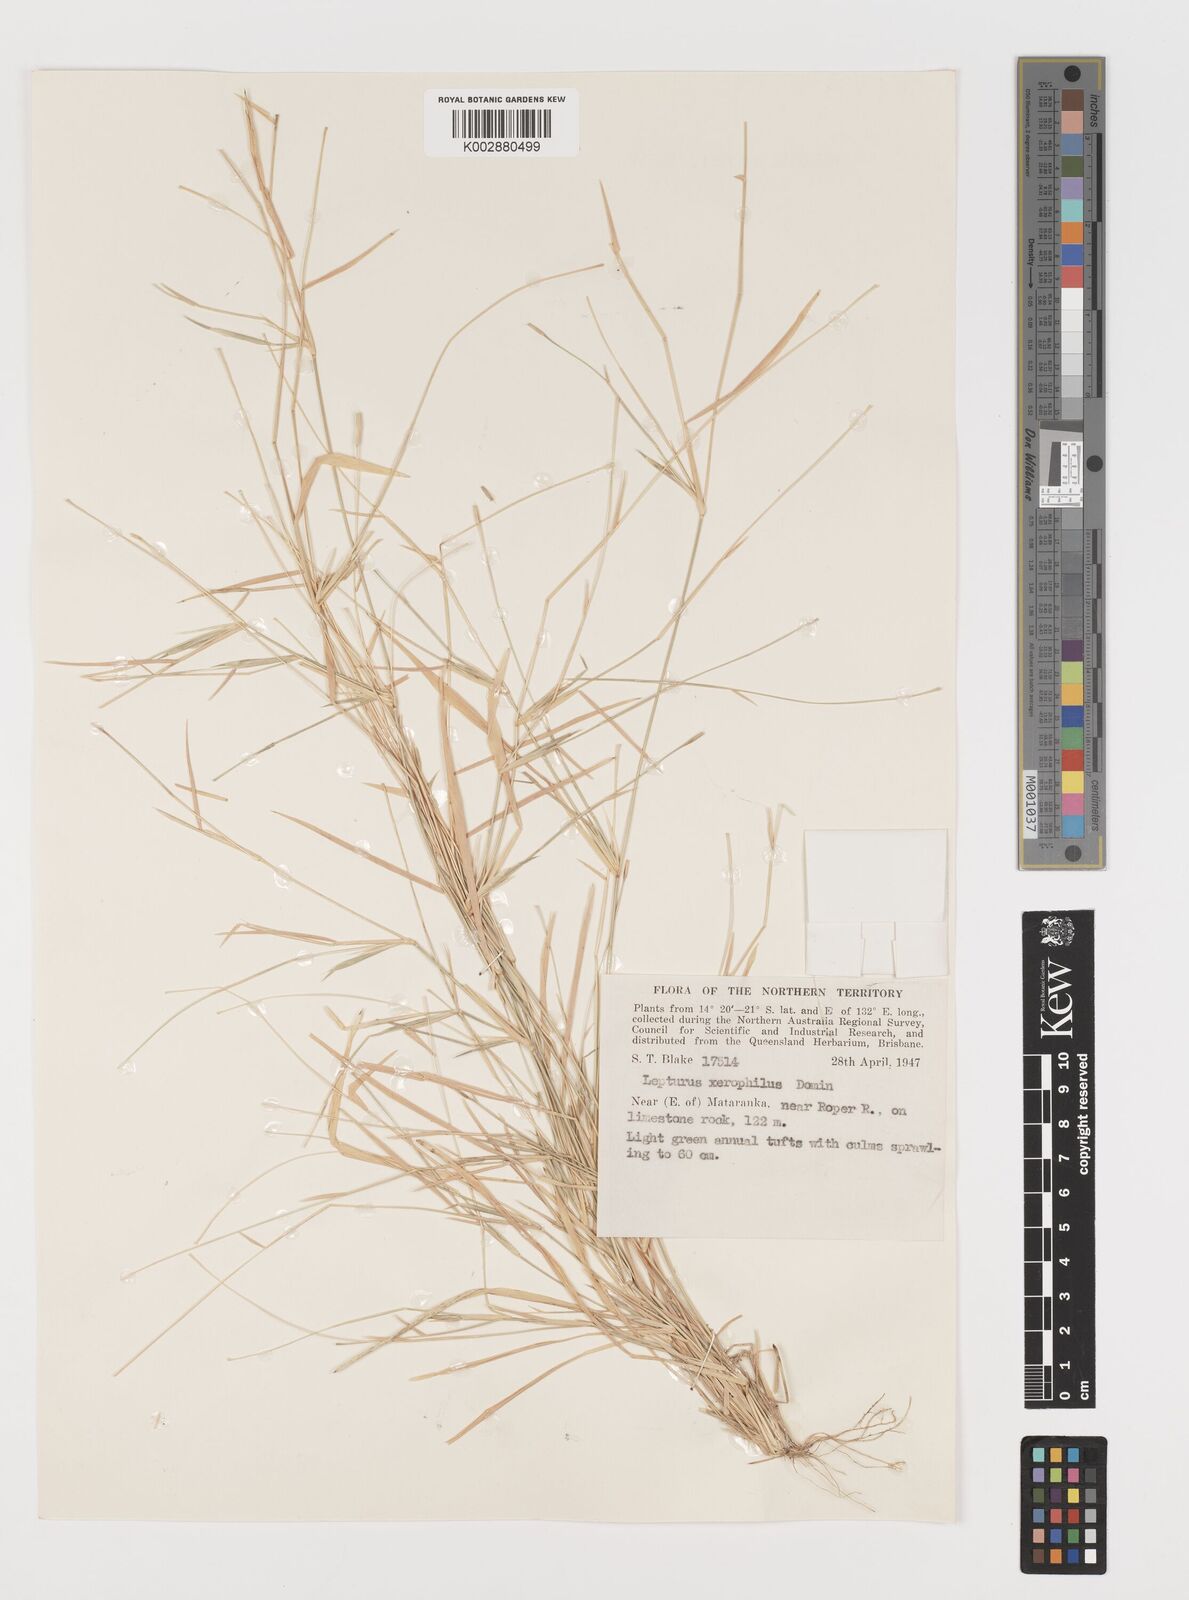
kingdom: Plantae
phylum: Tracheophyta
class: Liliopsida
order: Poales
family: Poaceae
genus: Lepturus
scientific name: Lepturus xerophilus
